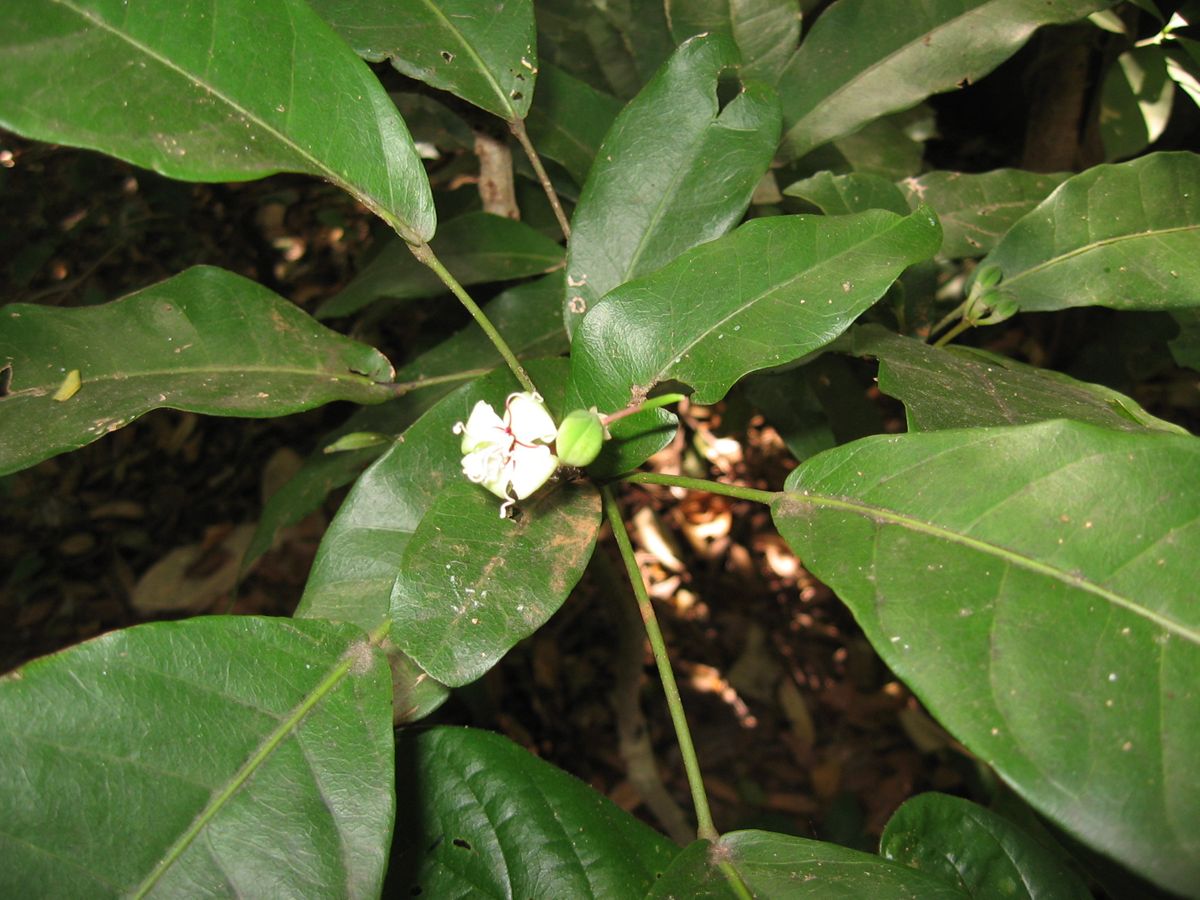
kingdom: Plantae
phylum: Tracheophyta
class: Magnoliopsida
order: Brassicales
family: Capparaceae
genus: Capparidastrum
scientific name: Capparidastrum frondosum
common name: Church blossom
